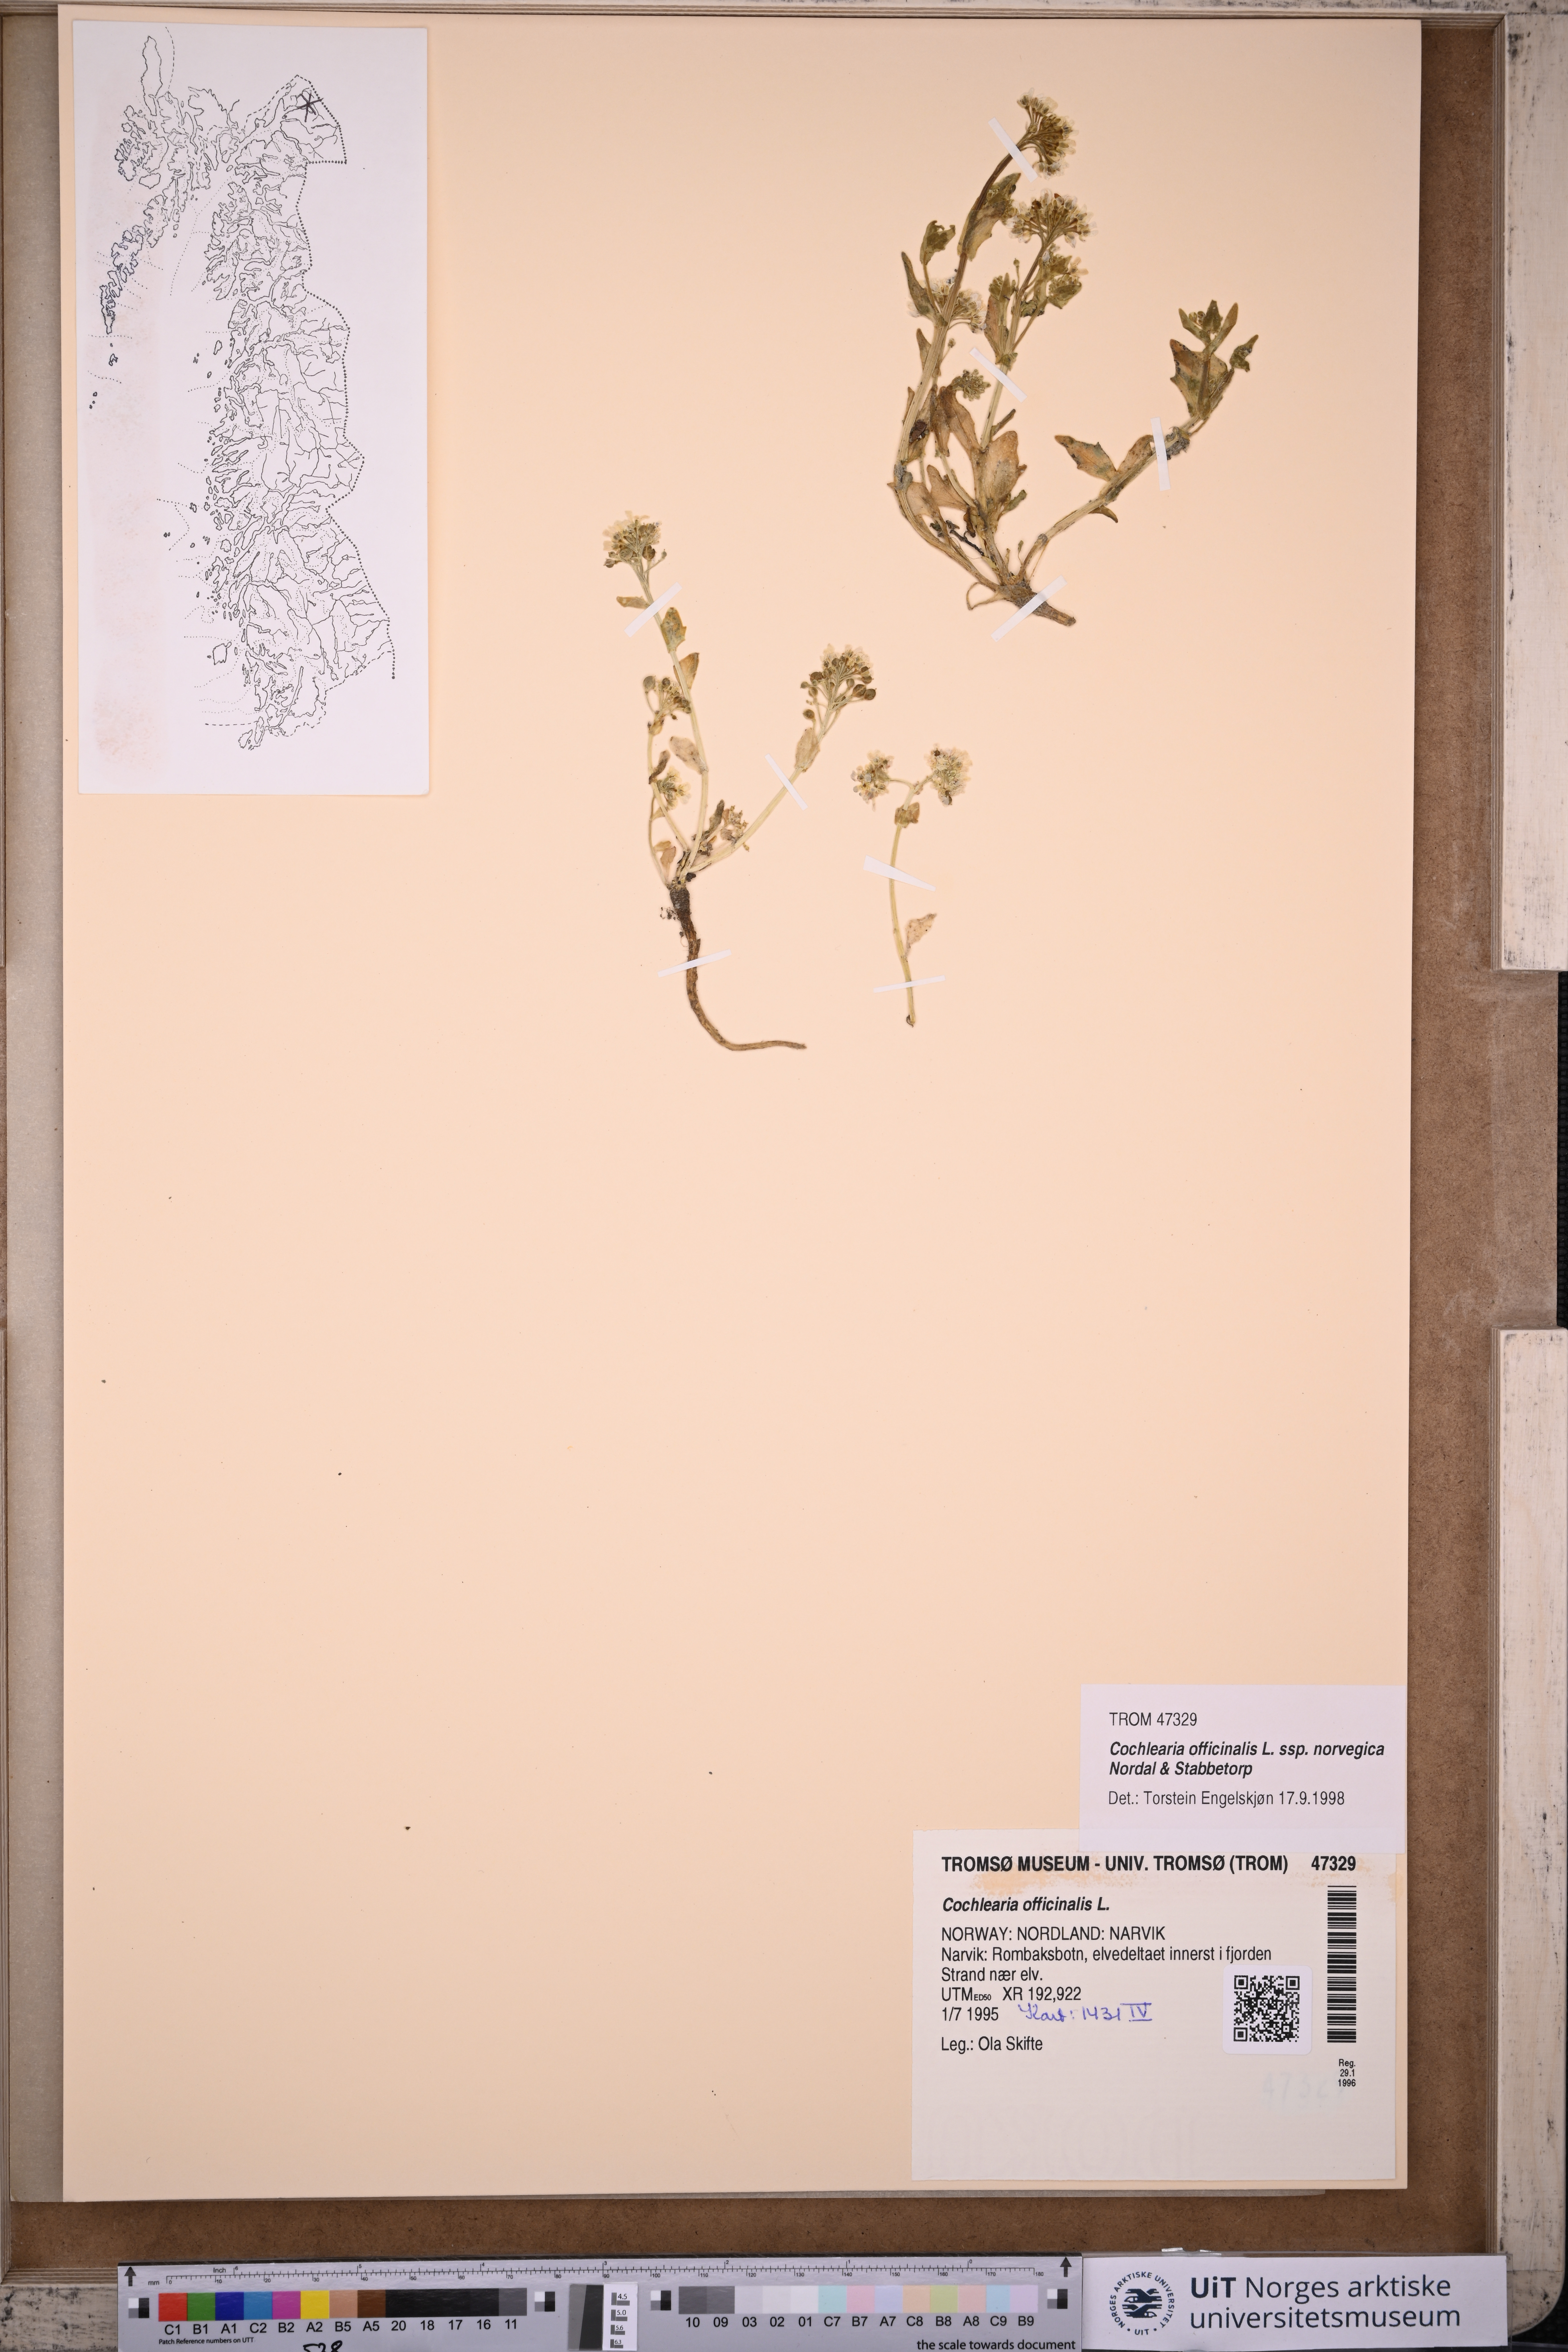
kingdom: Plantae
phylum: Tracheophyta
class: Magnoliopsida
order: Brassicales
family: Brassicaceae
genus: Cochlearia
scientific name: Cochlearia officinalis
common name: Scurvy-grass
